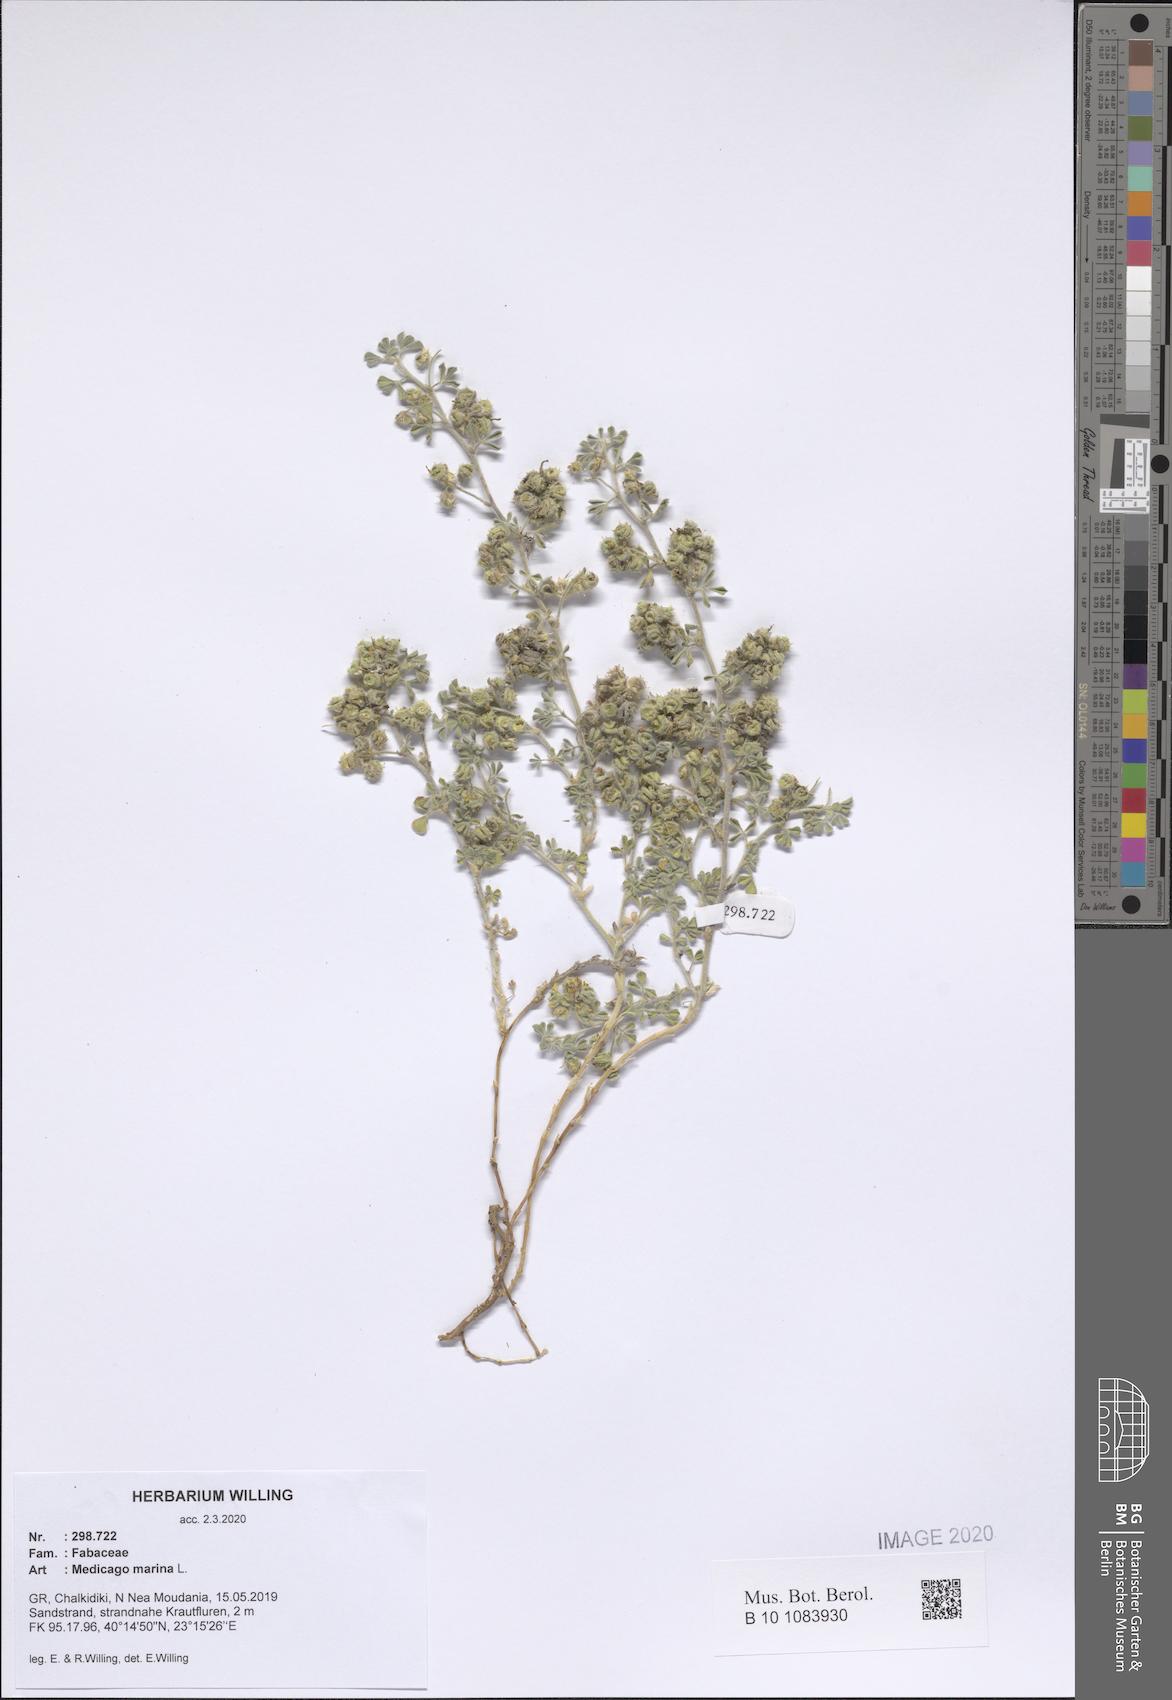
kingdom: Plantae
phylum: Tracheophyta
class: Magnoliopsida
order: Fabales
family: Fabaceae
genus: Medicago
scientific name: Medicago marina
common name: Sea medick
